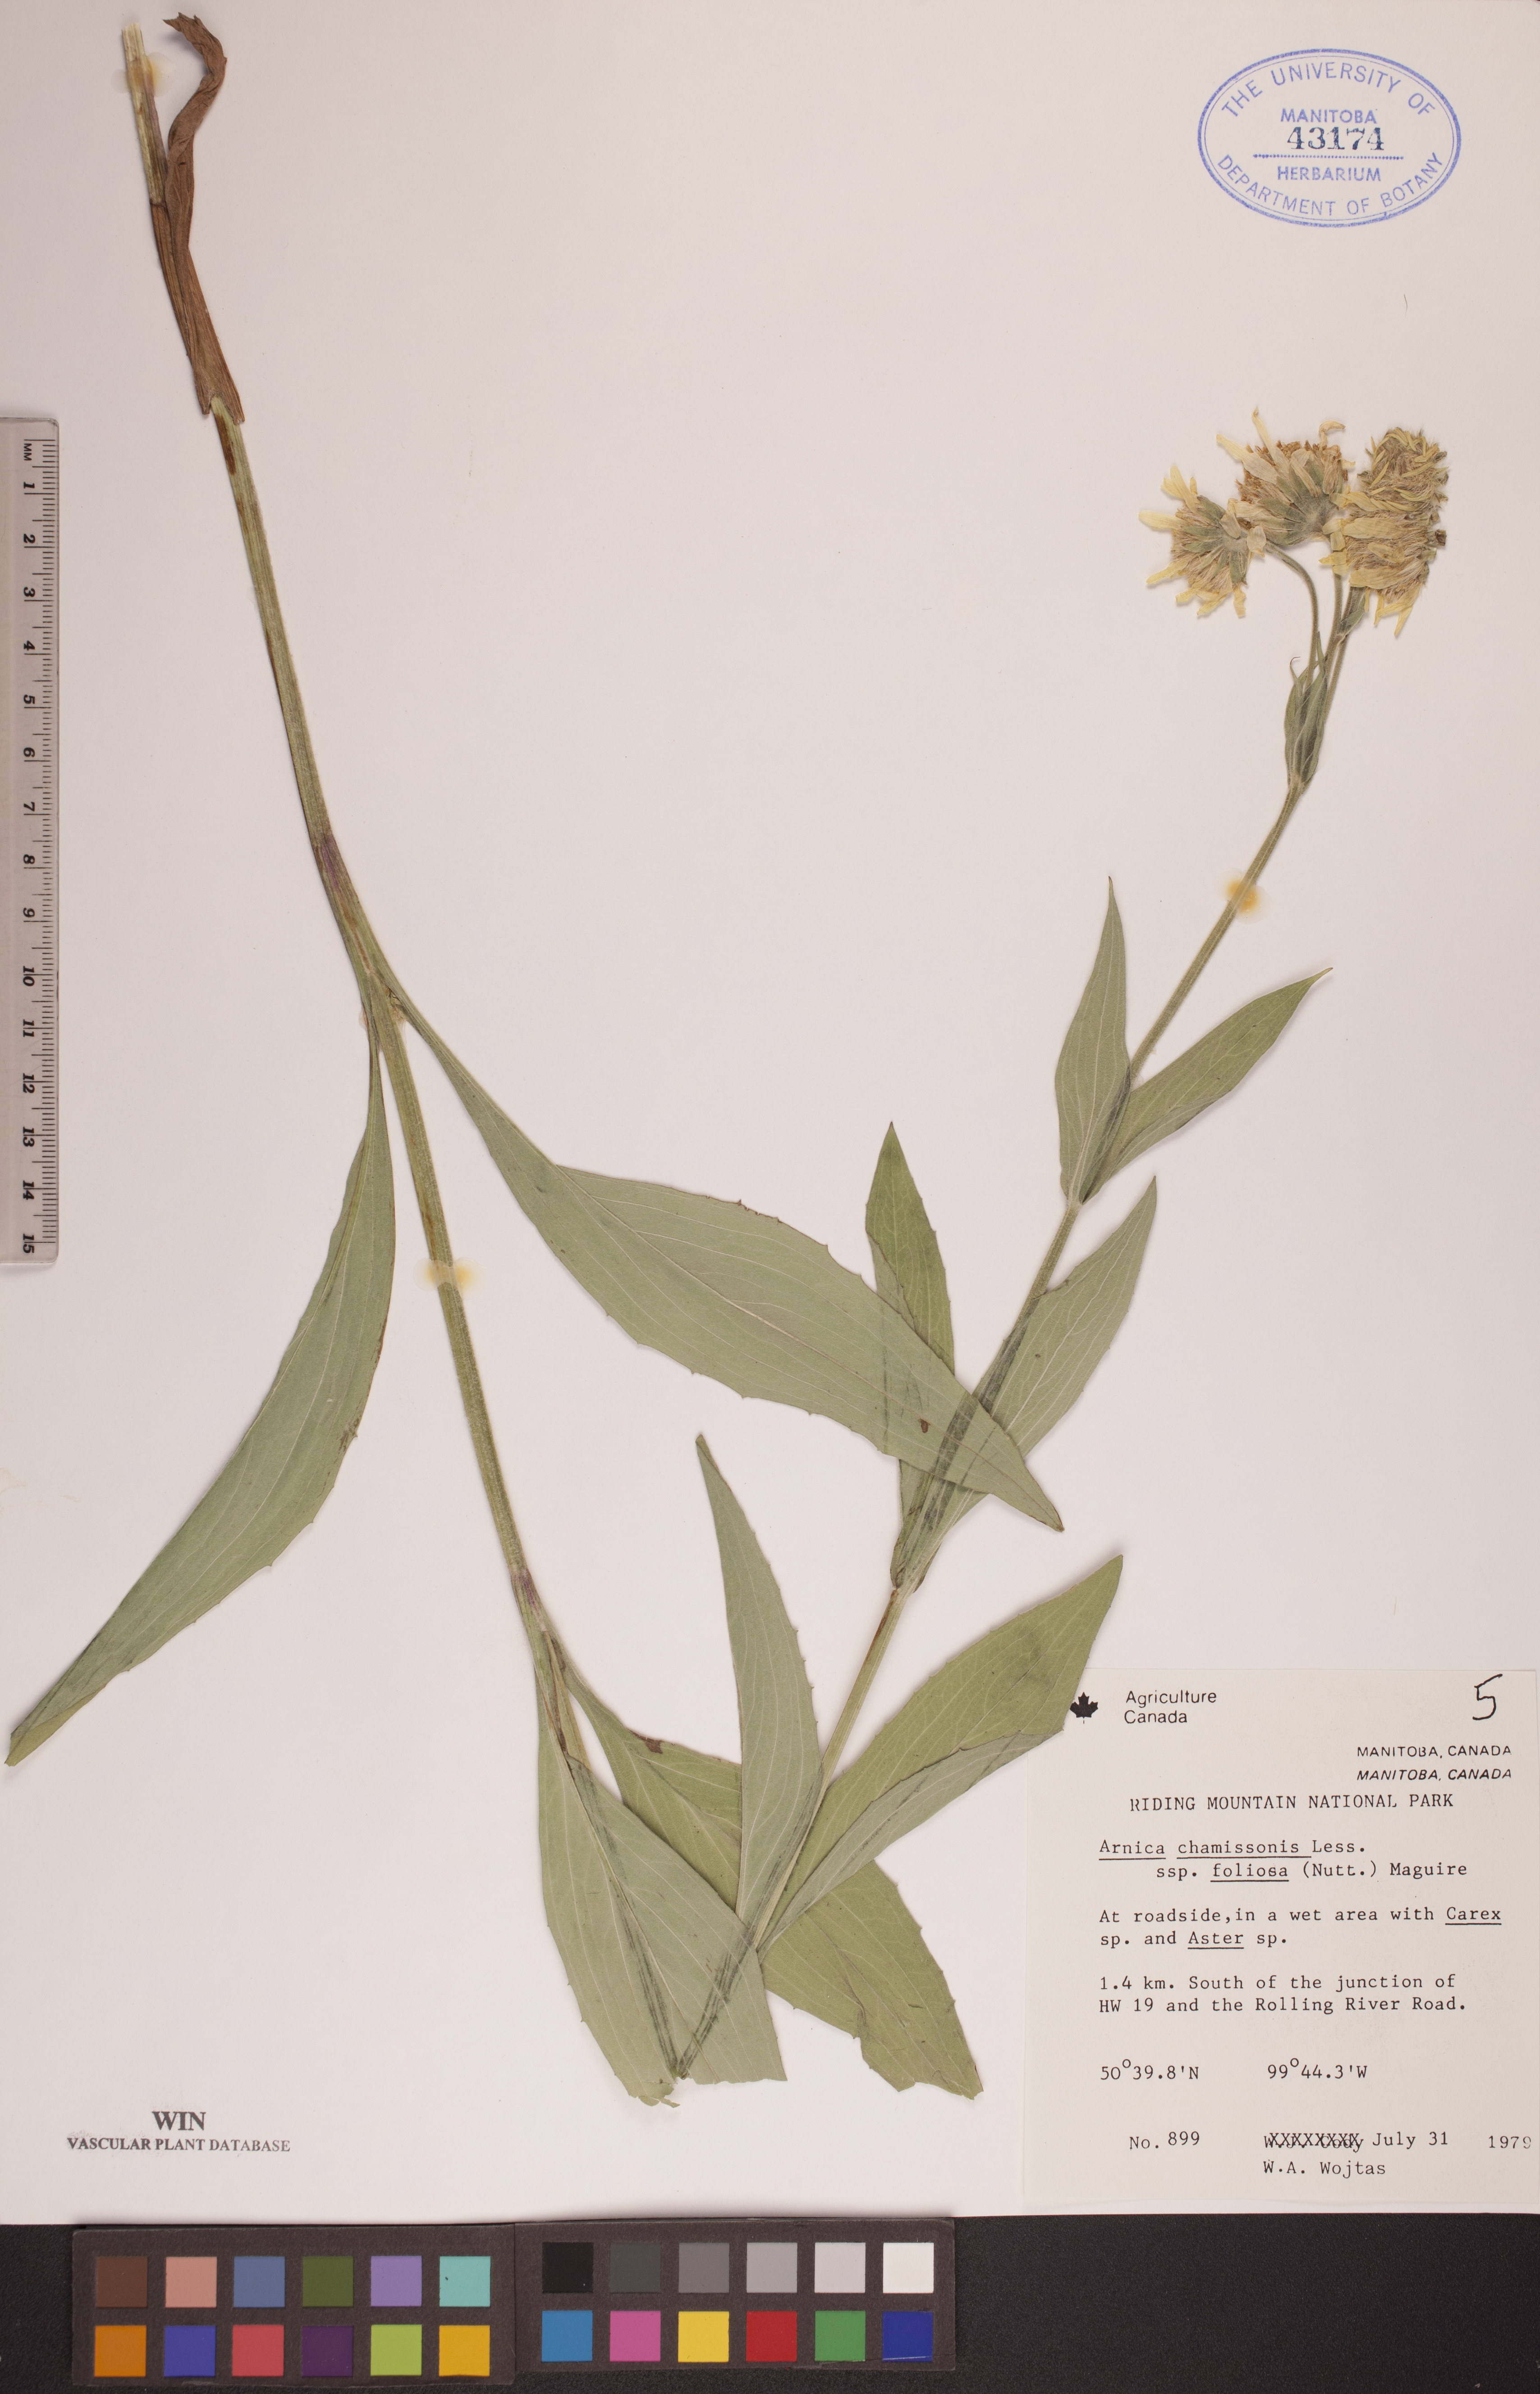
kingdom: Plantae
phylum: Tracheophyta
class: Magnoliopsida
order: Asterales
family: Asteraceae
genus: Arnica
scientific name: Arnica chamissonis
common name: Leafy arnica
